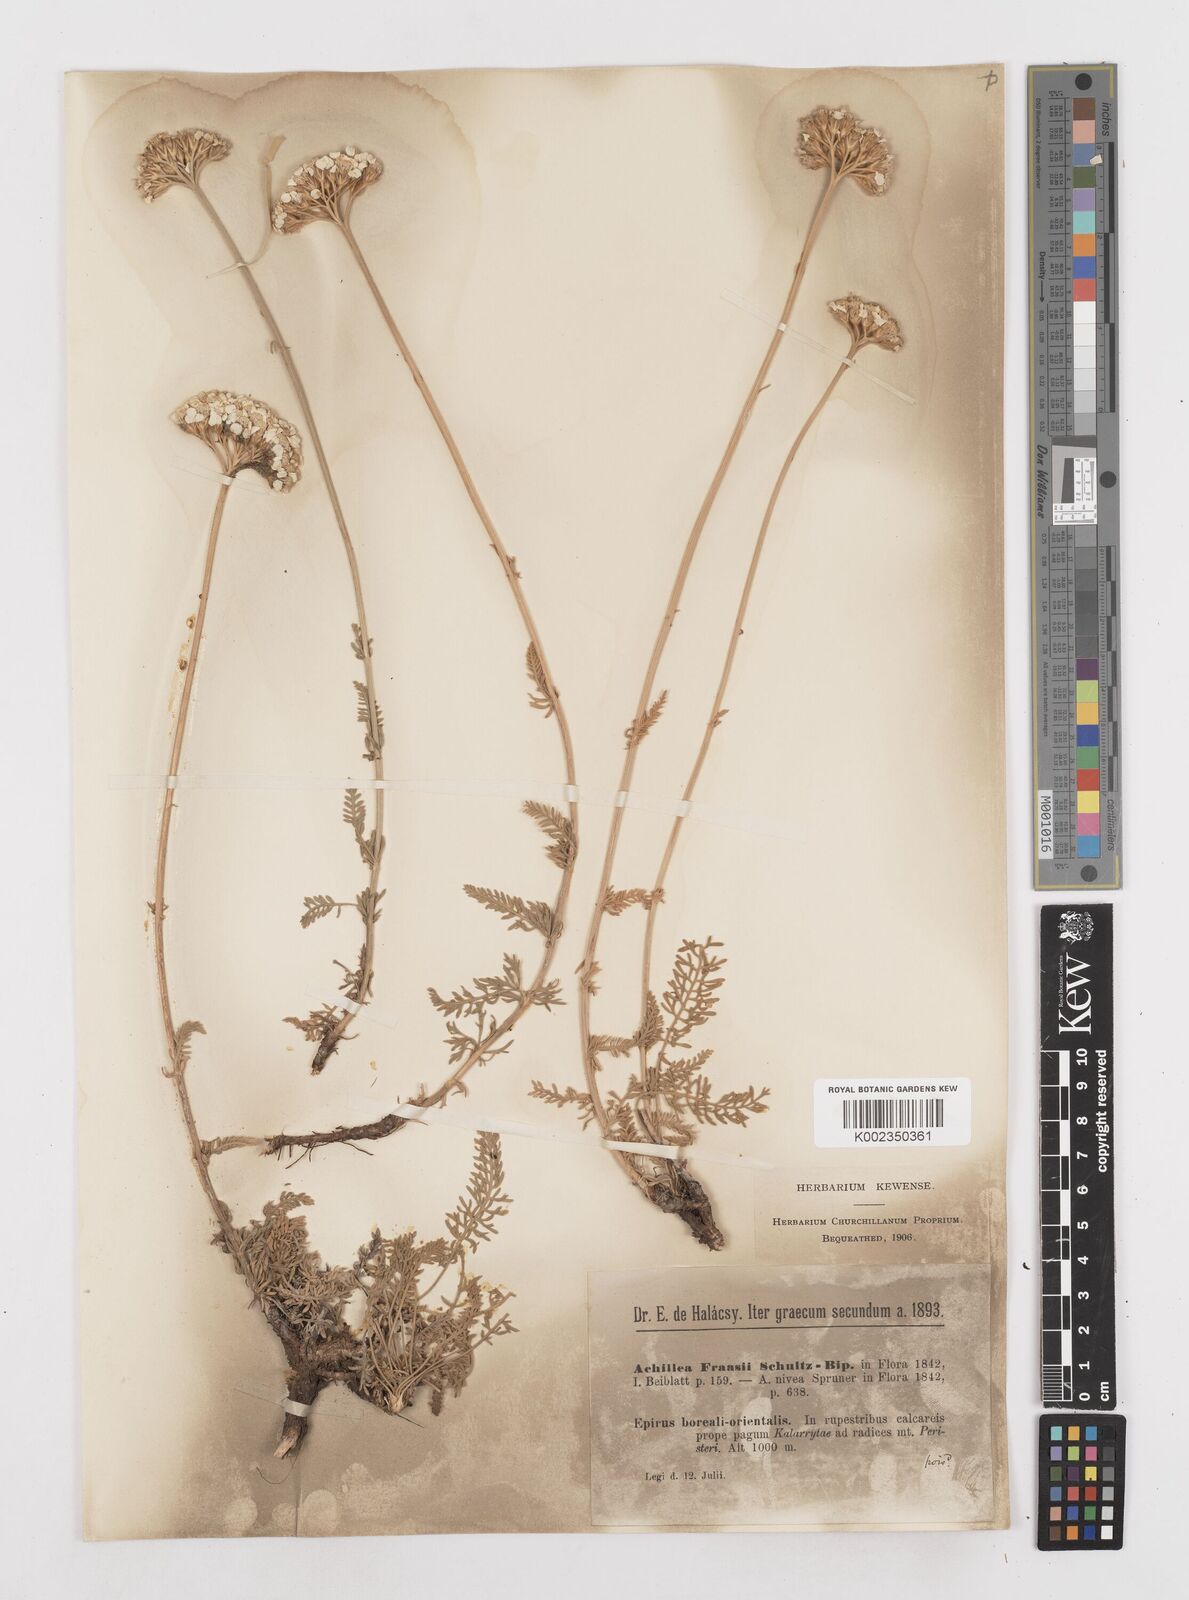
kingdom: Plantae
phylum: Tracheophyta
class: Magnoliopsida
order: Asterales
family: Asteraceae
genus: Achillea
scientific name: Achillea fraasii
